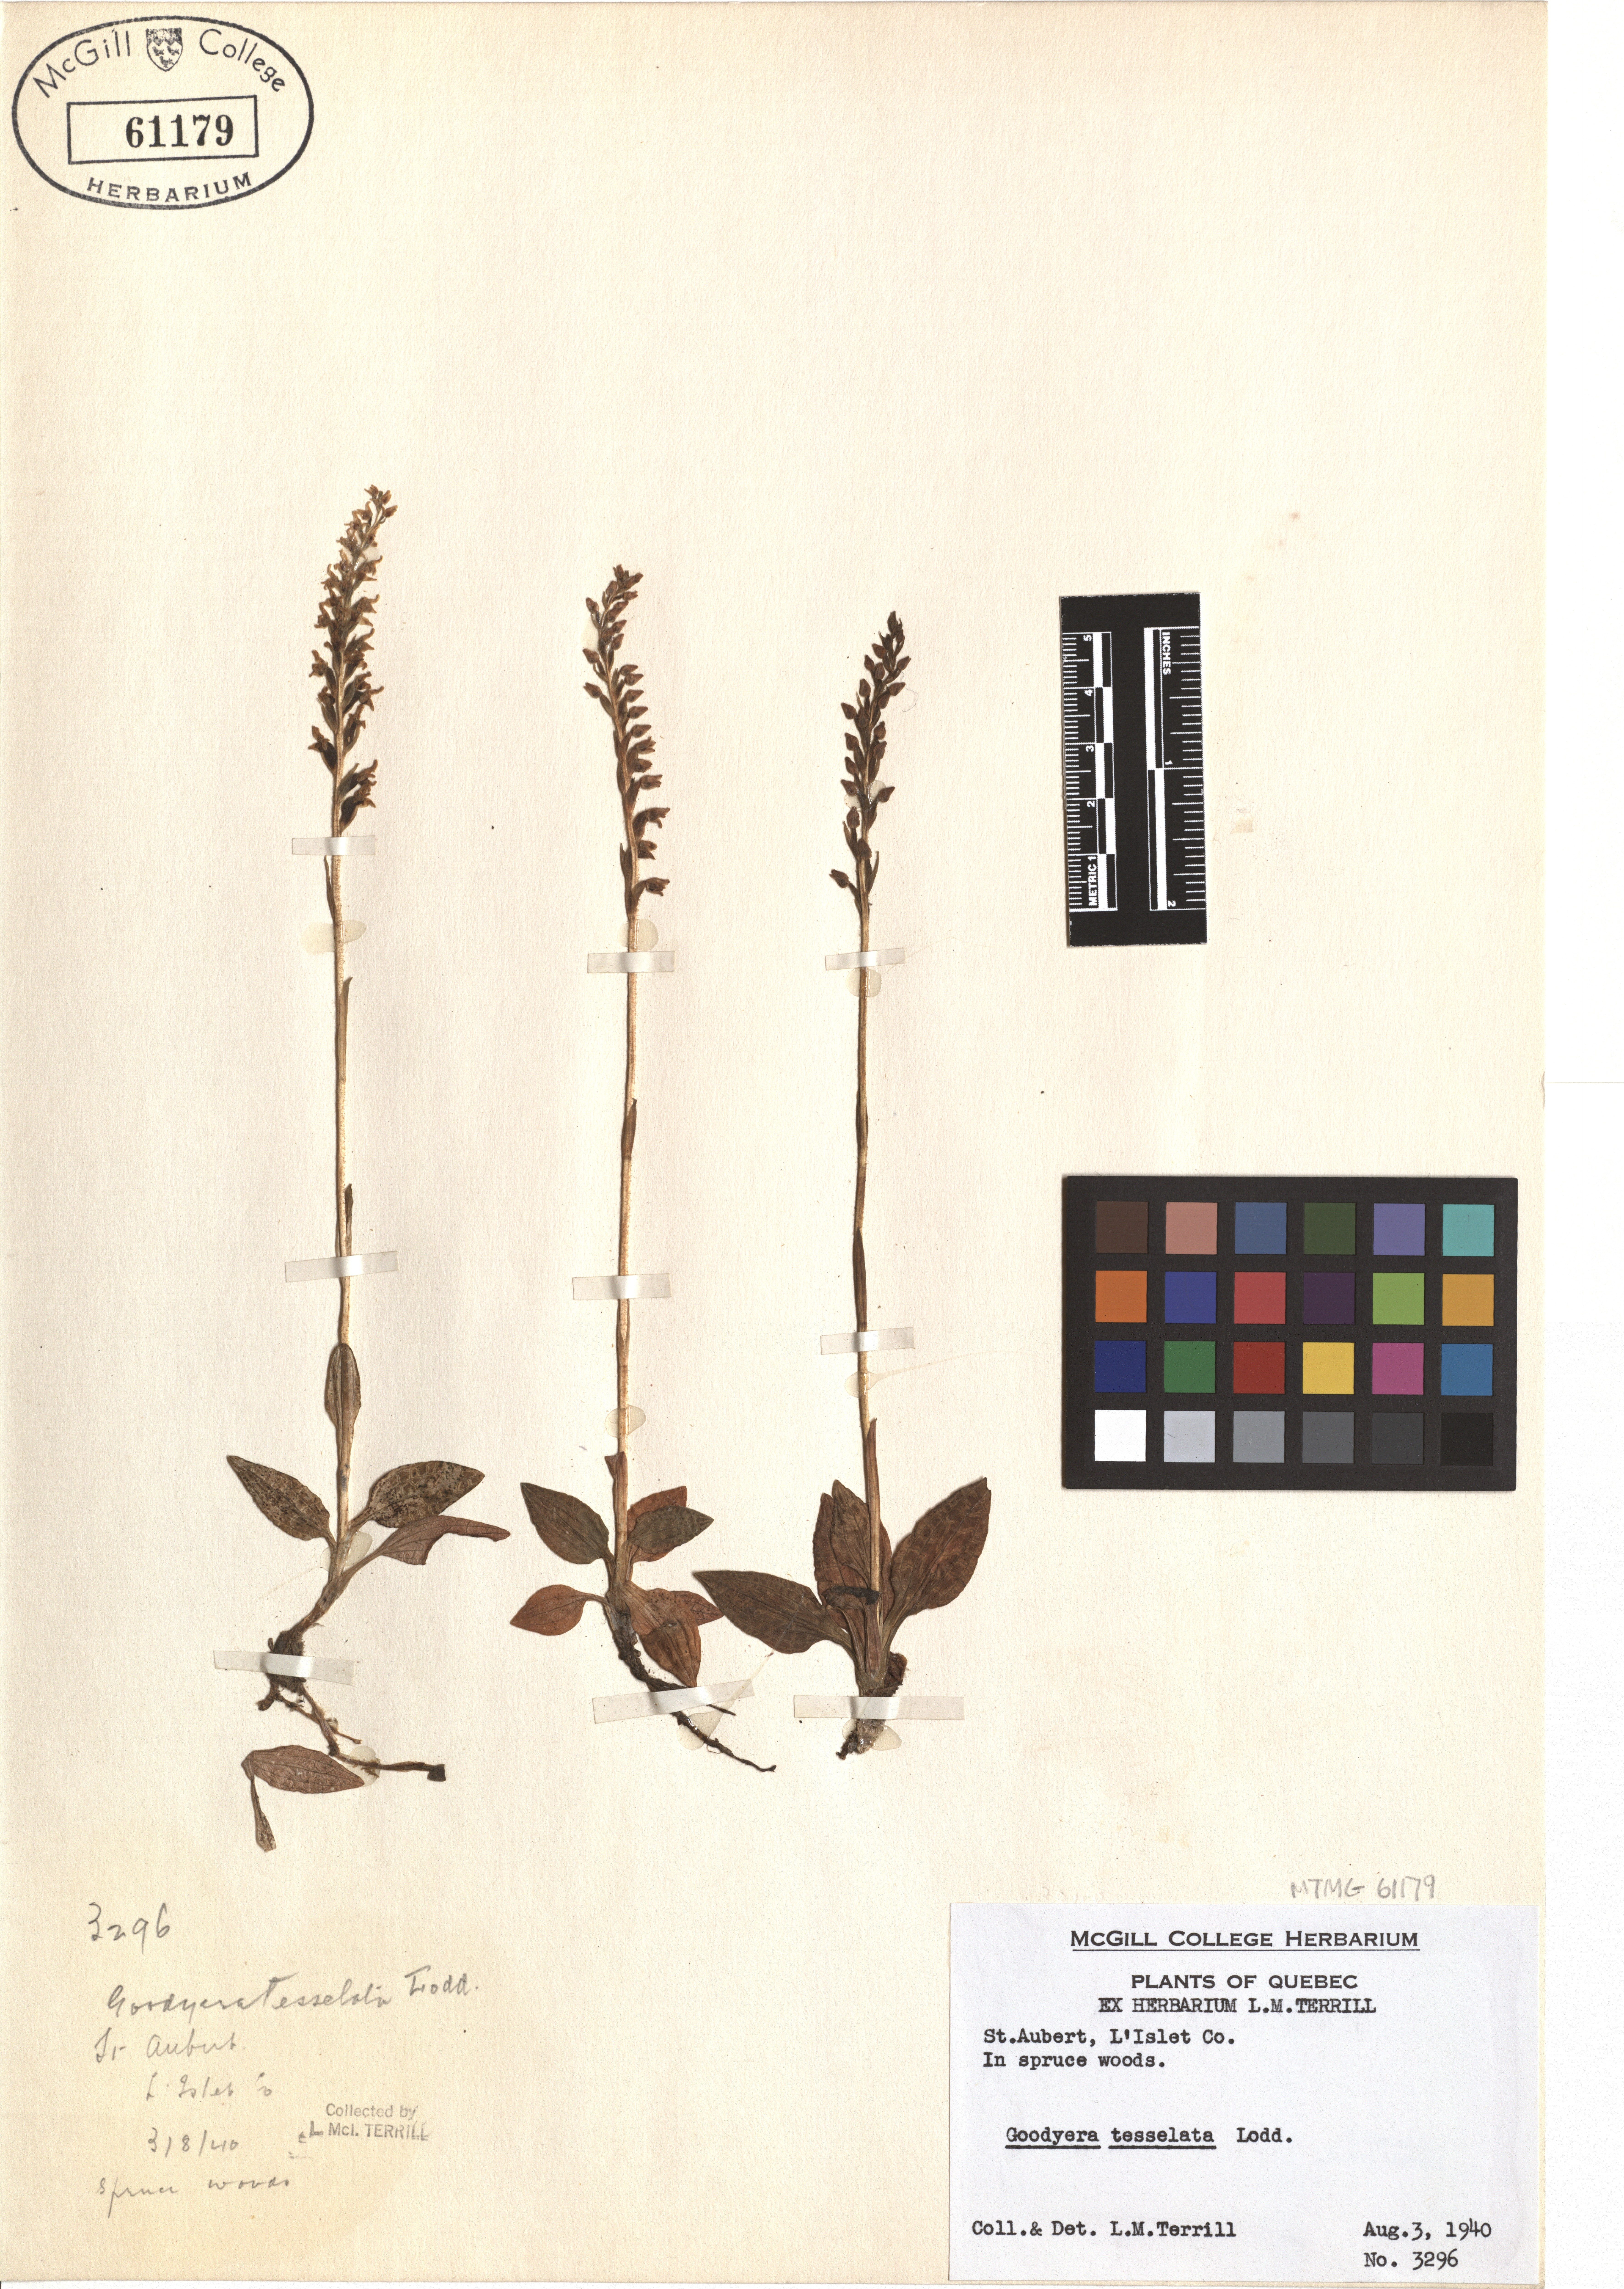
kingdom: Plantae
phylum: Tracheophyta
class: Liliopsida
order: Asparagales
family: Orchidaceae
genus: Goodyera
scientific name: Goodyera tesselata
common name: Checkered rattlesnake-plantain
